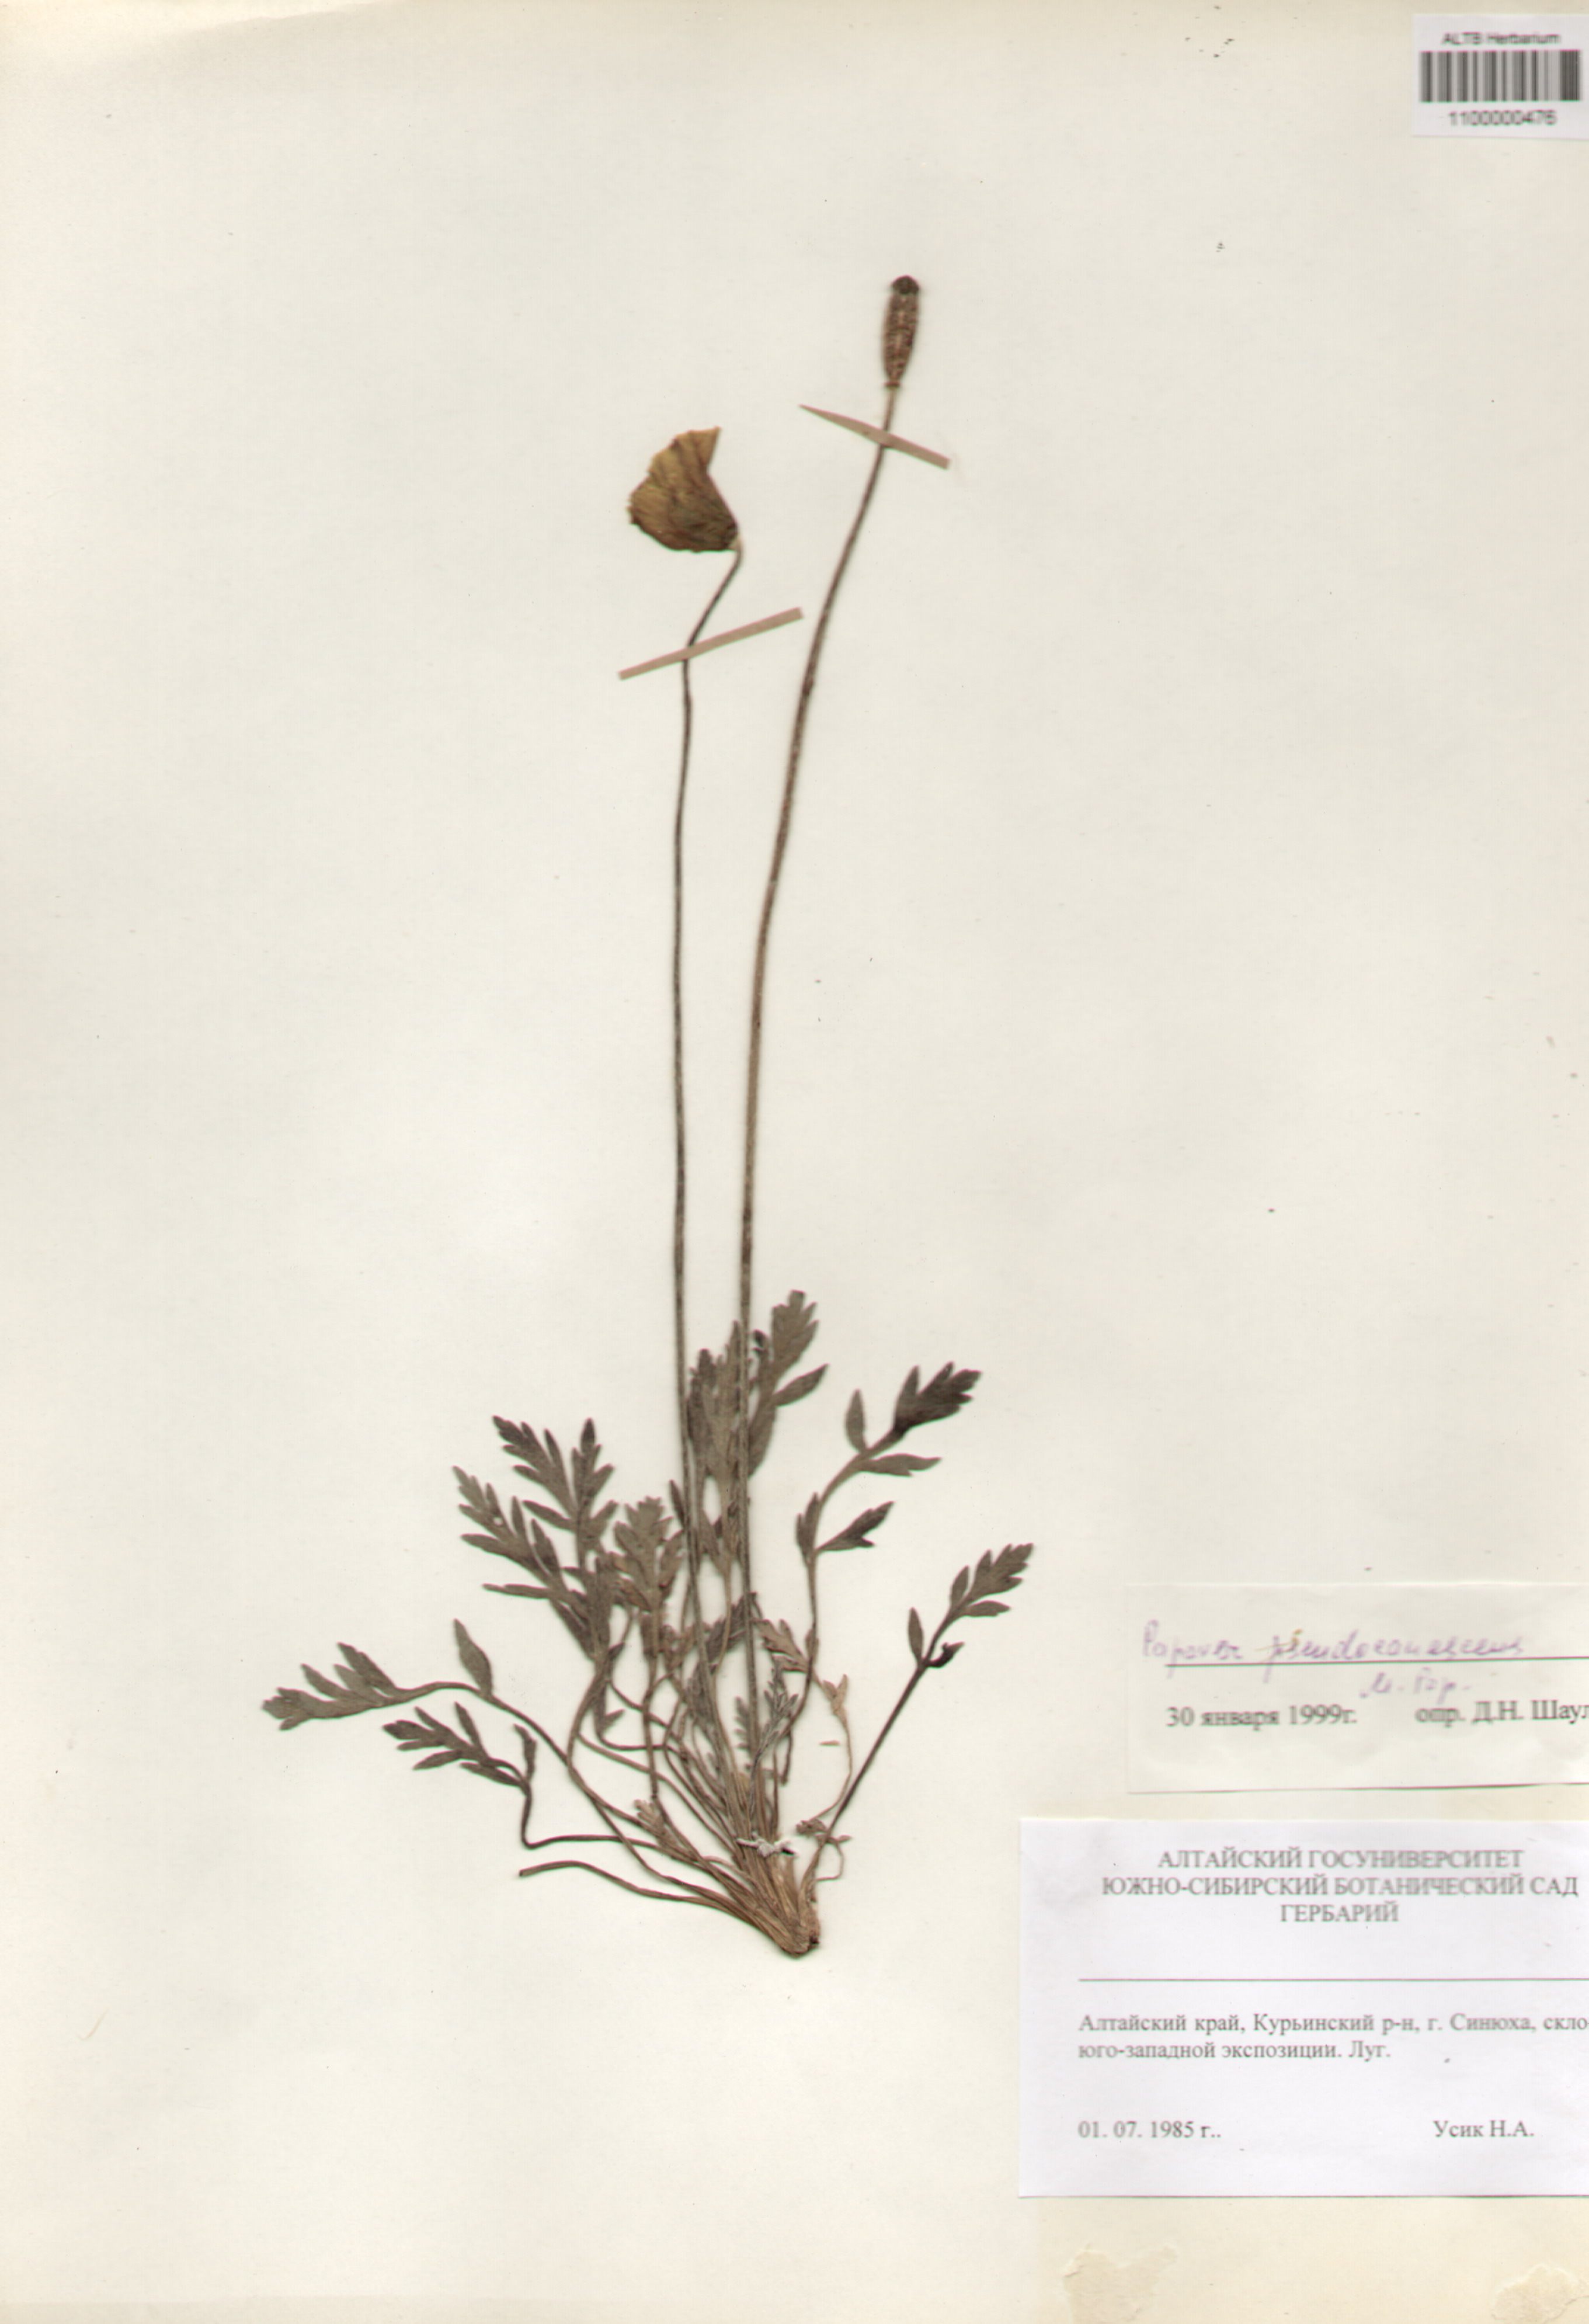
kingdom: Plantae
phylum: Tracheophyta
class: Magnoliopsida
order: Ranunculales
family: Papaveraceae
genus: Papaver
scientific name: Papaver canescens
